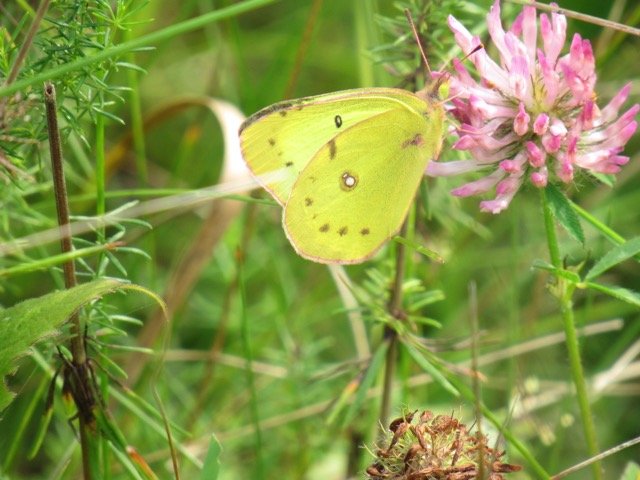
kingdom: Animalia
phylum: Arthropoda
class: Insecta
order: Lepidoptera
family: Pieridae
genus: Colias
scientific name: Colias philodice
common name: Clouded Sulphur
